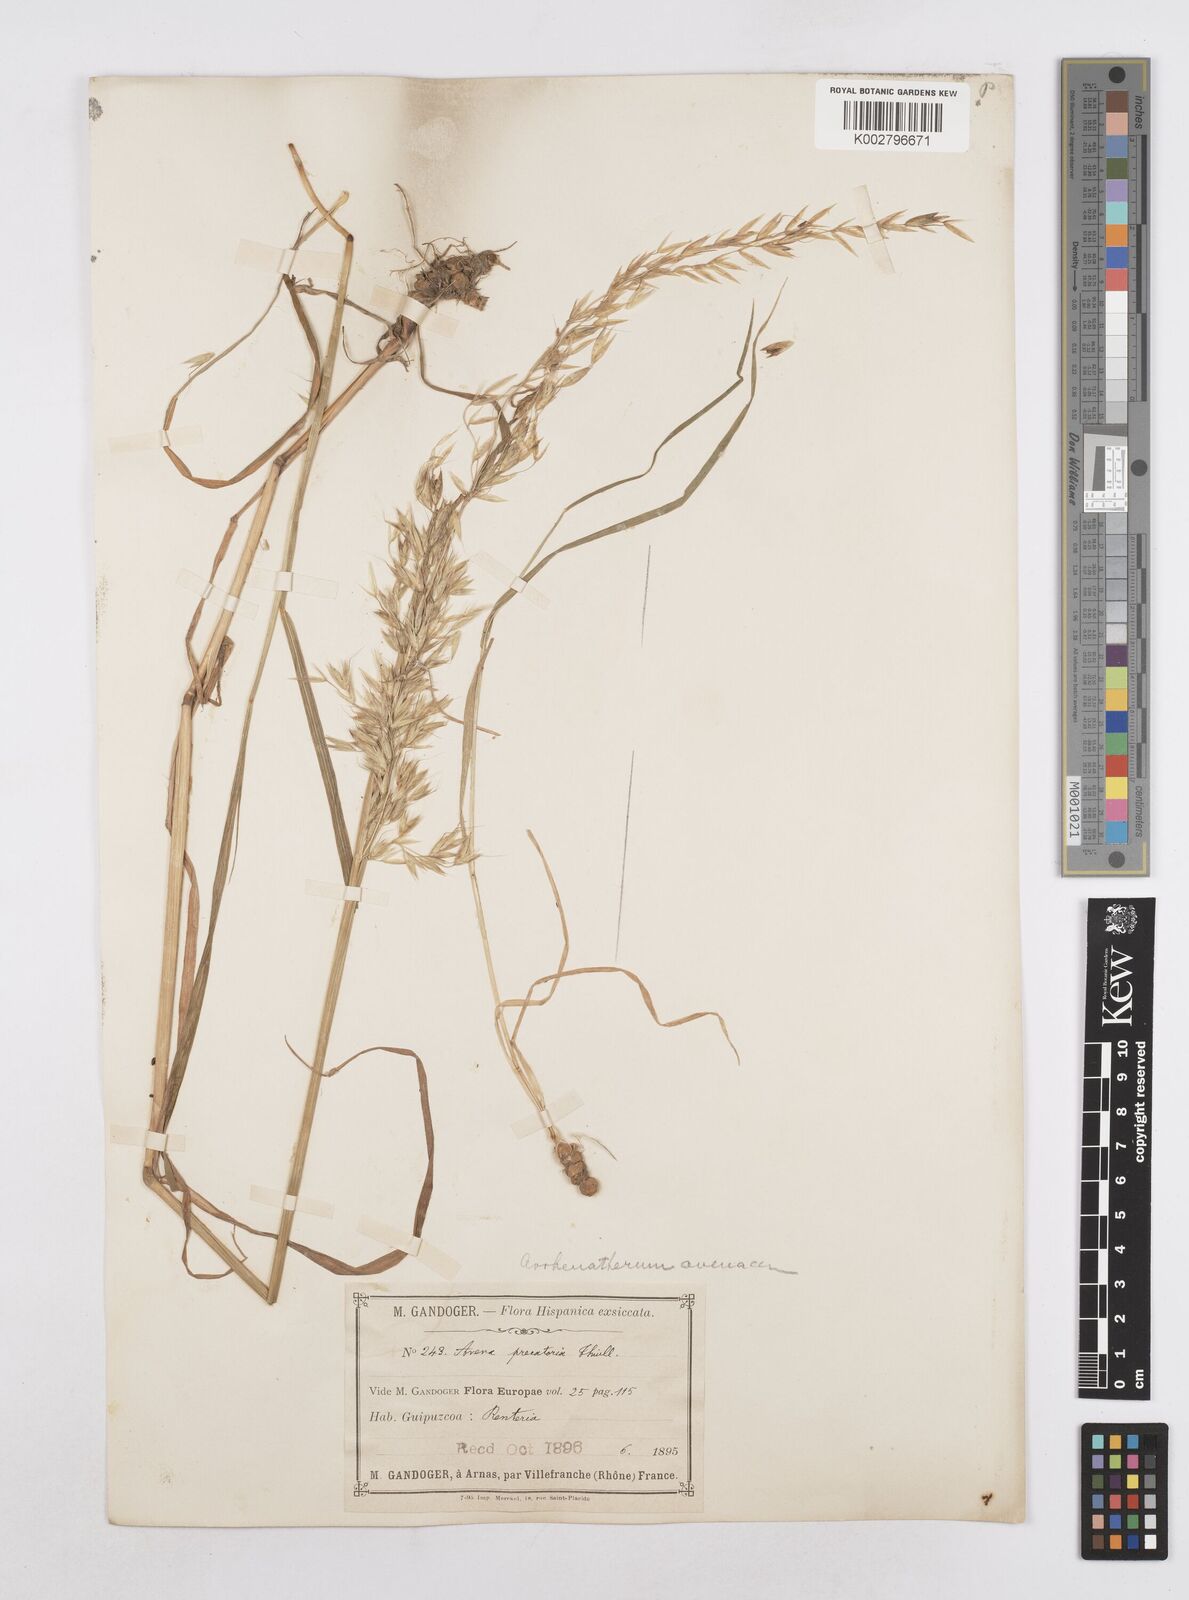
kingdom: Plantae
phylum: Tracheophyta
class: Liliopsida
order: Poales
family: Poaceae
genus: Arrhenatherum
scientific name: Arrhenatherum elatius
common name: Tall oatgrass
